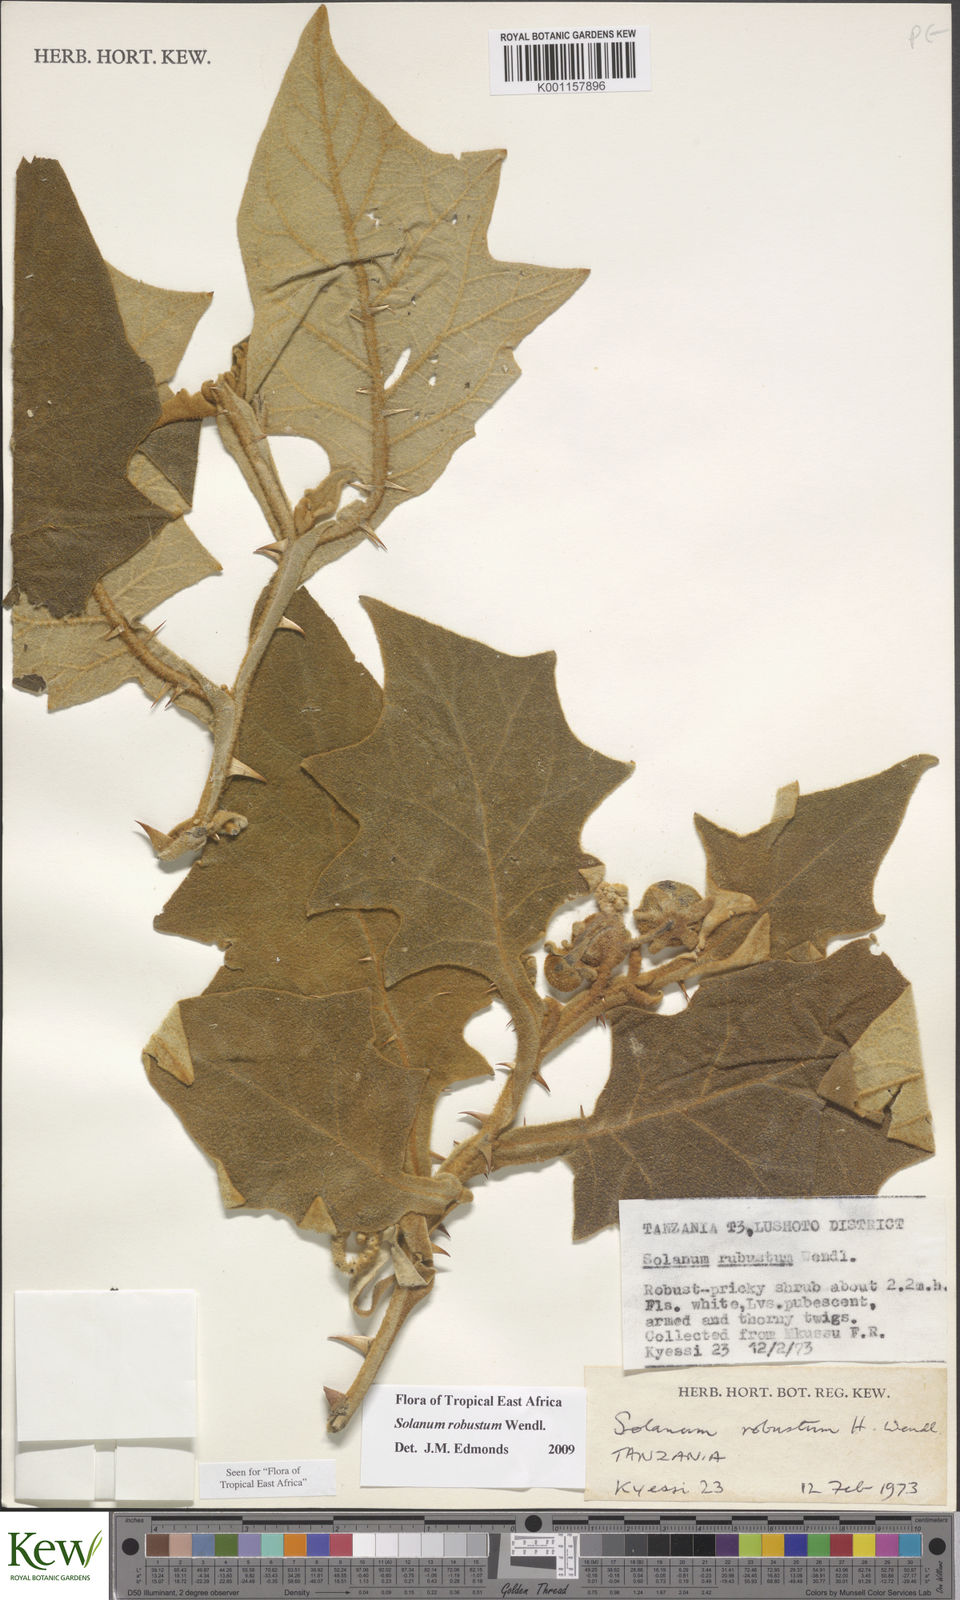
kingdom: Plantae
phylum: Tracheophyta
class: Magnoliopsida
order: Solanales
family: Solanaceae
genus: Solanum
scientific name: Solanum robustum
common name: Shrubby nightshade
